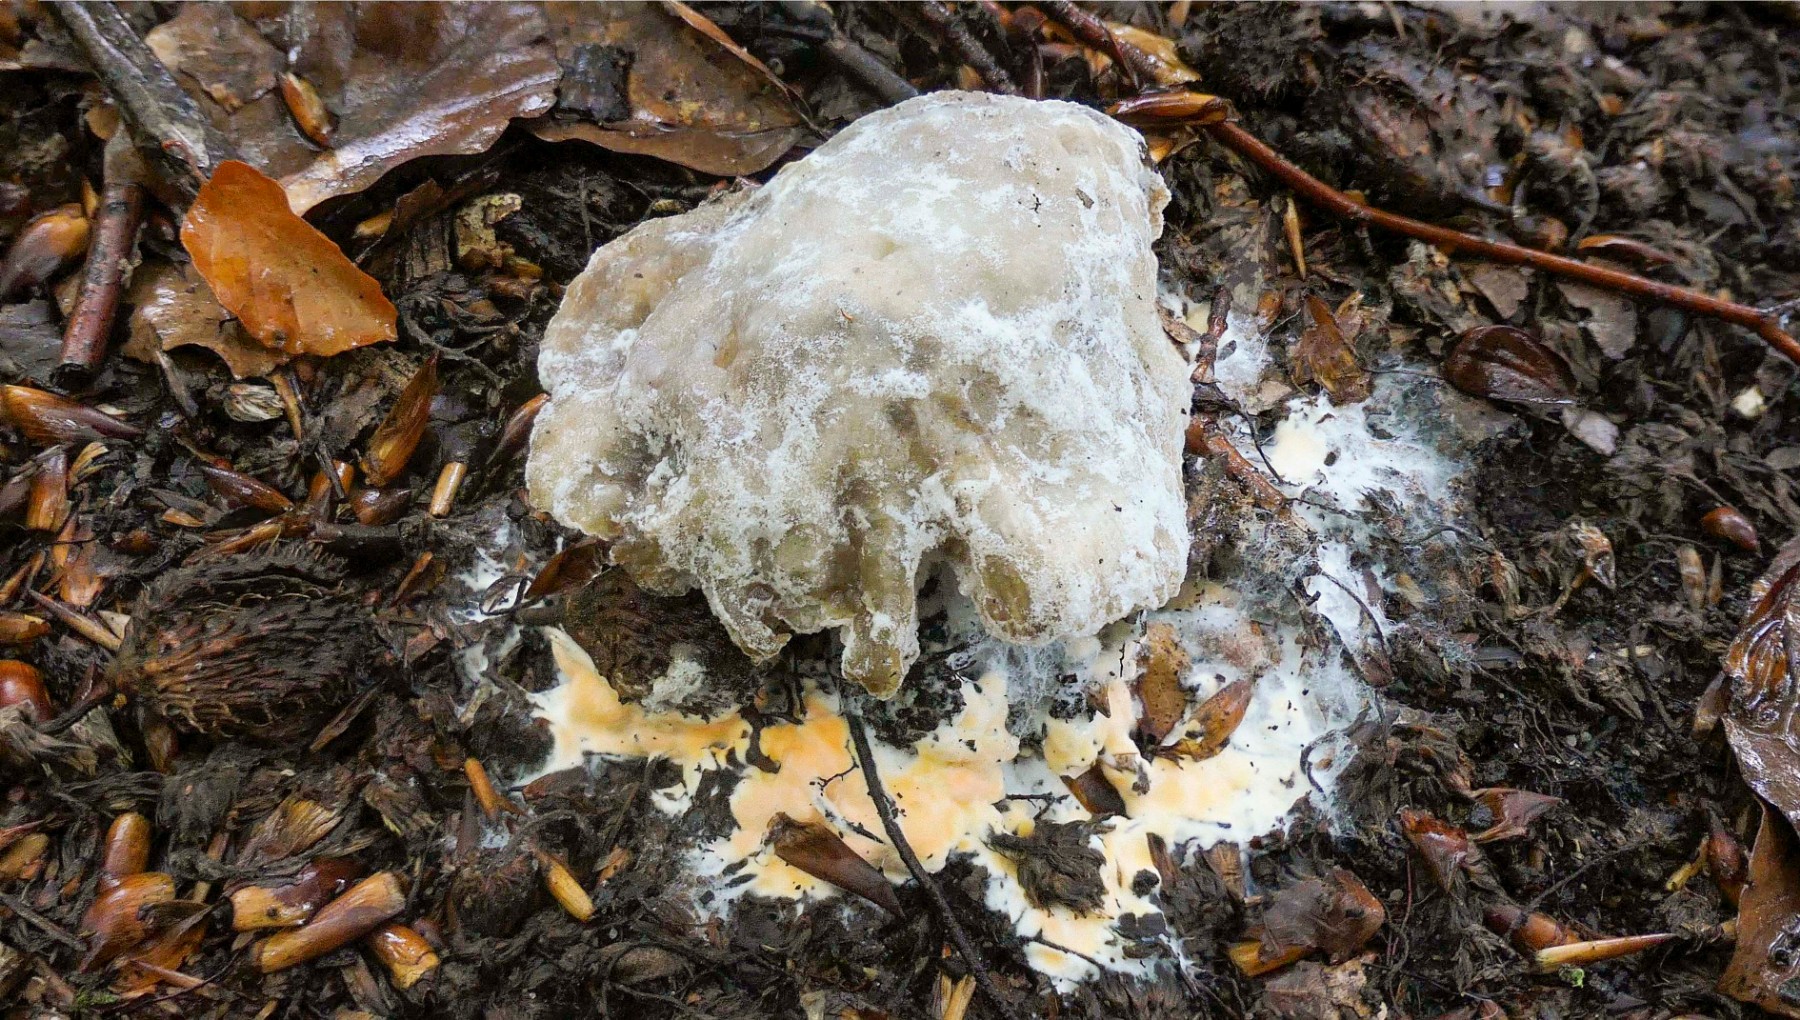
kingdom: Fungi
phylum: Ascomycota
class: Sordariomycetes
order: Hypocreales
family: Hypocreaceae
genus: Hypomyces
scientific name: Hypomyces ochraceus
